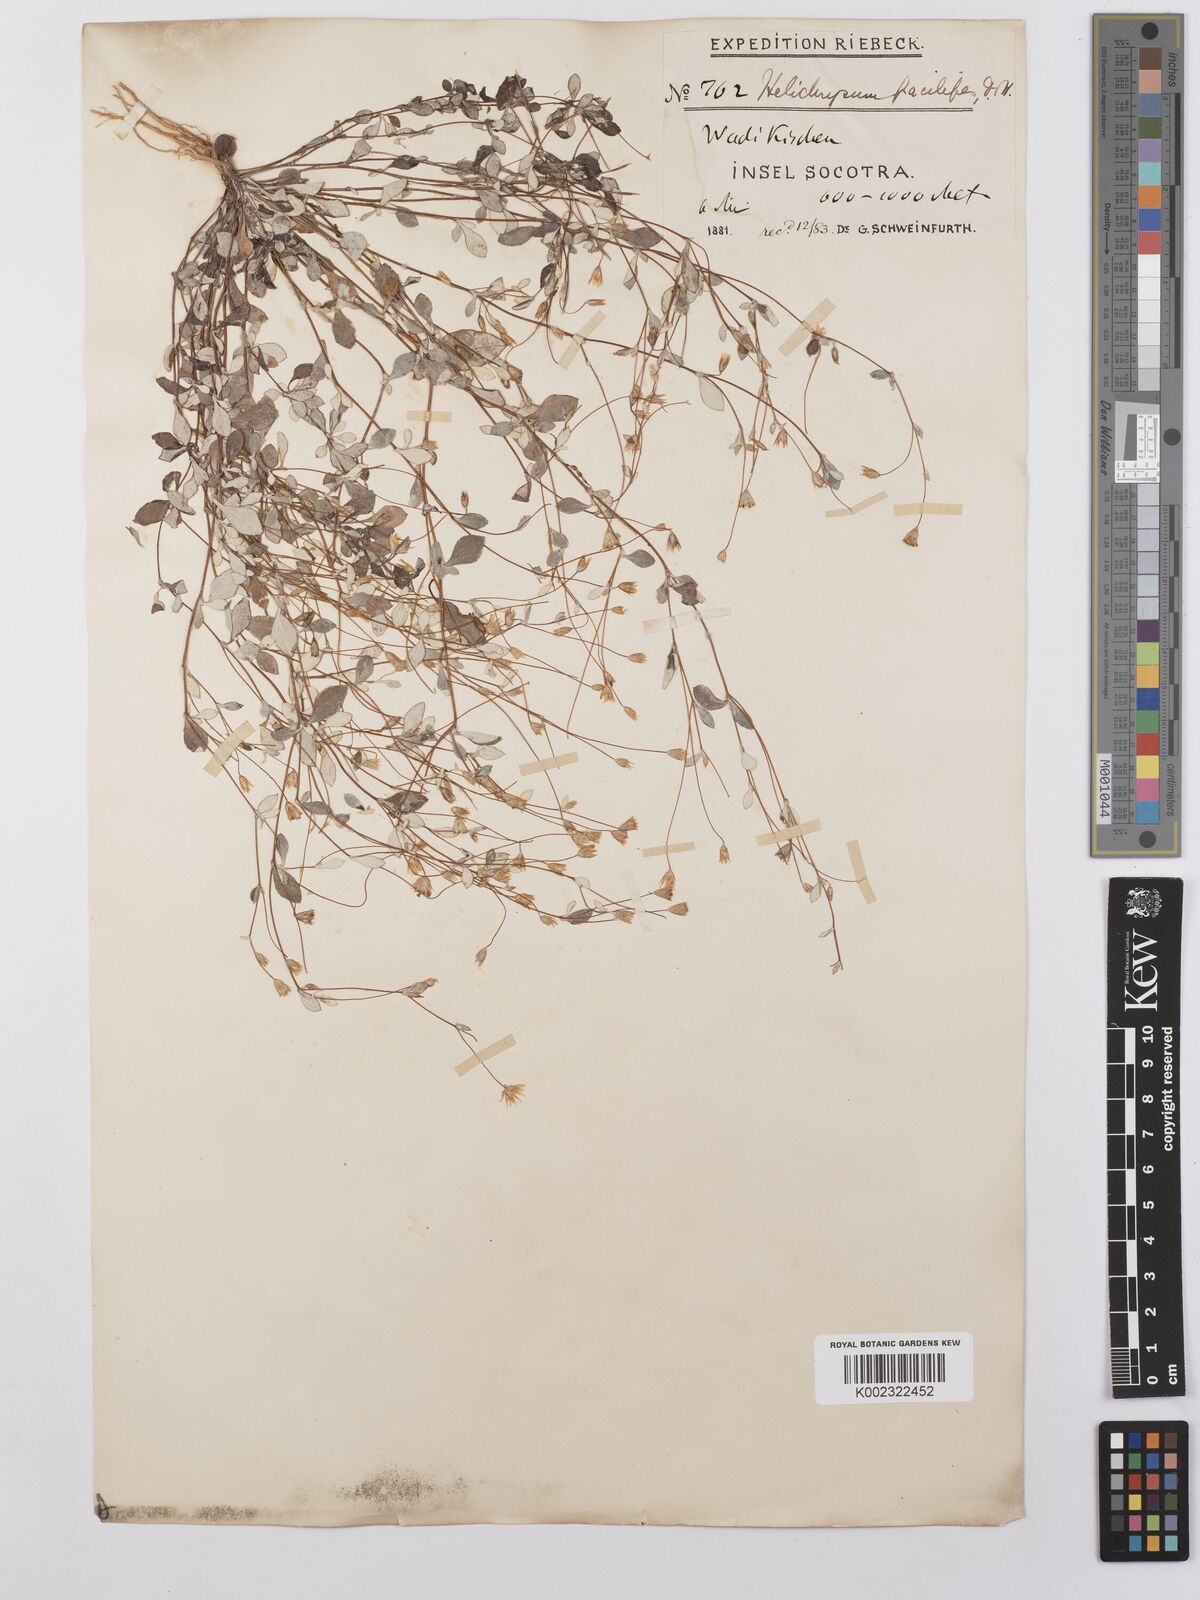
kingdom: Plantae
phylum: Tracheophyta
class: Magnoliopsida
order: Asterales
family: Asteraceae
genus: Libinhania
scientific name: Libinhania gracilipes
